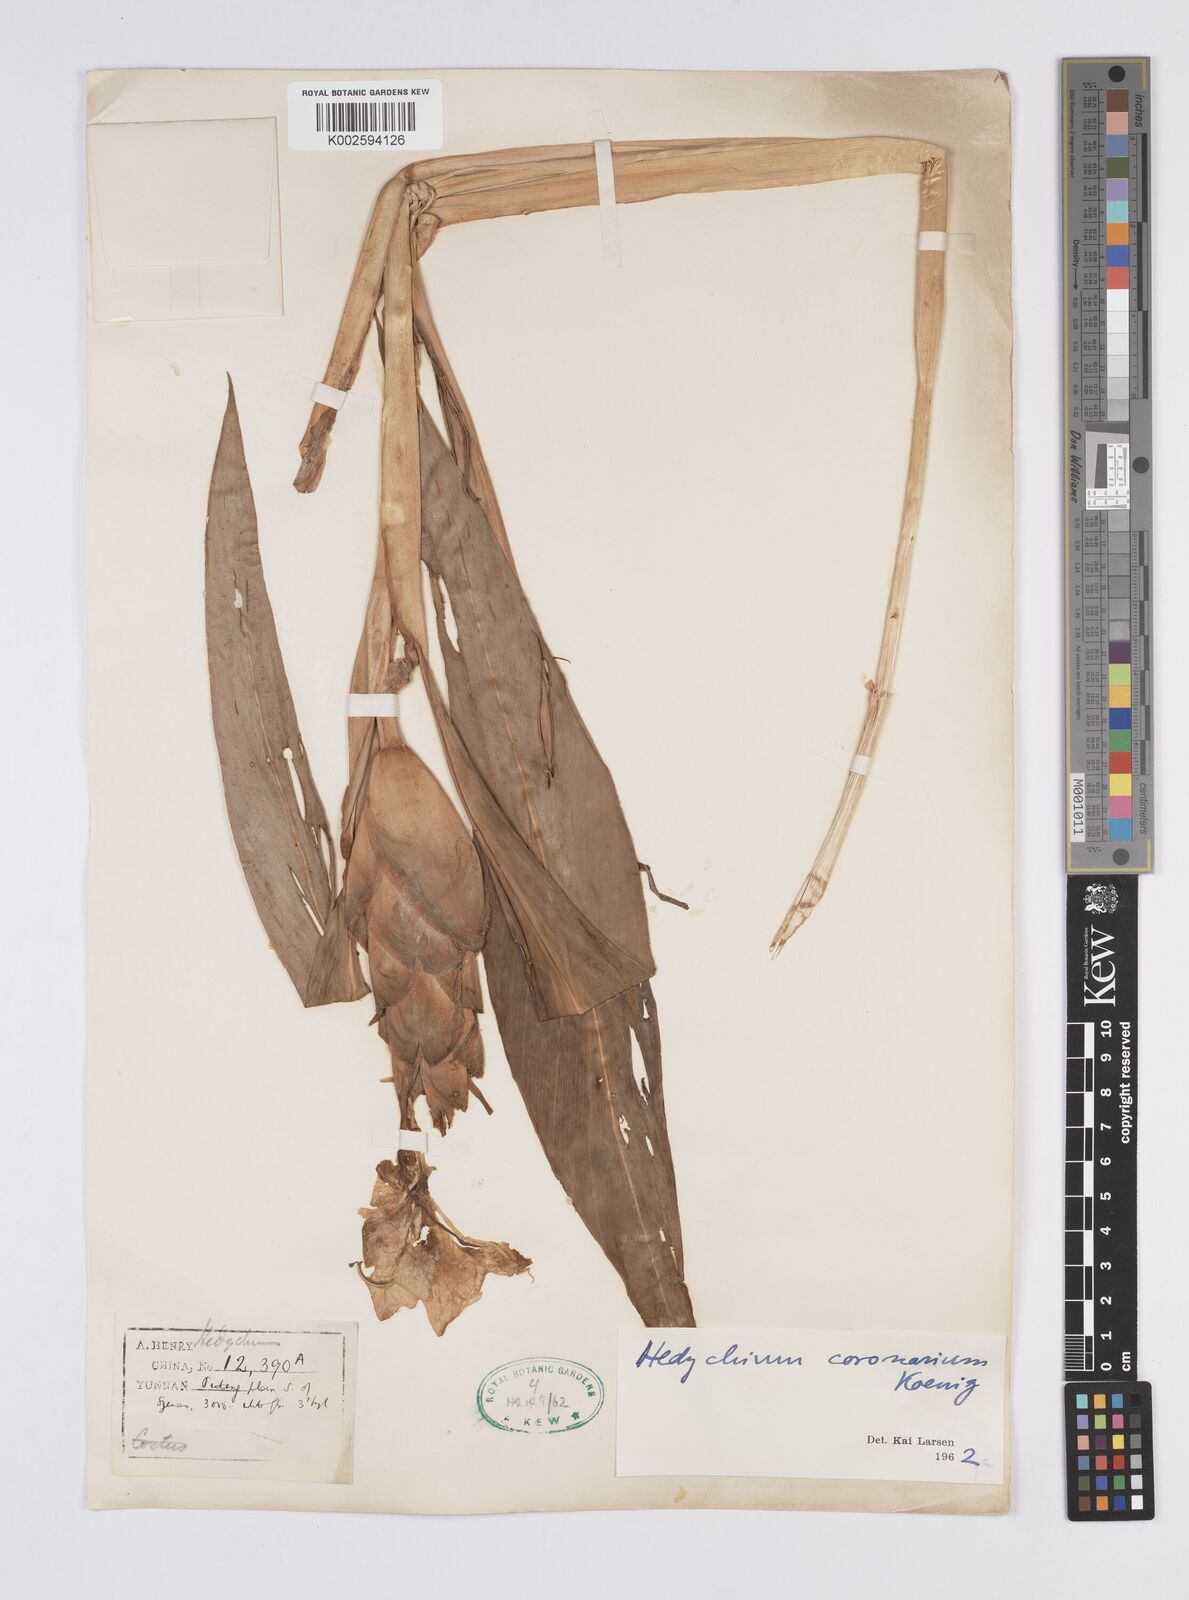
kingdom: Plantae
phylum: Tracheophyta
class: Liliopsida
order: Zingiberales
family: Zingiberaceae
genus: Hedychium
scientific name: Hedychium coronarium
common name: White garland-lily
